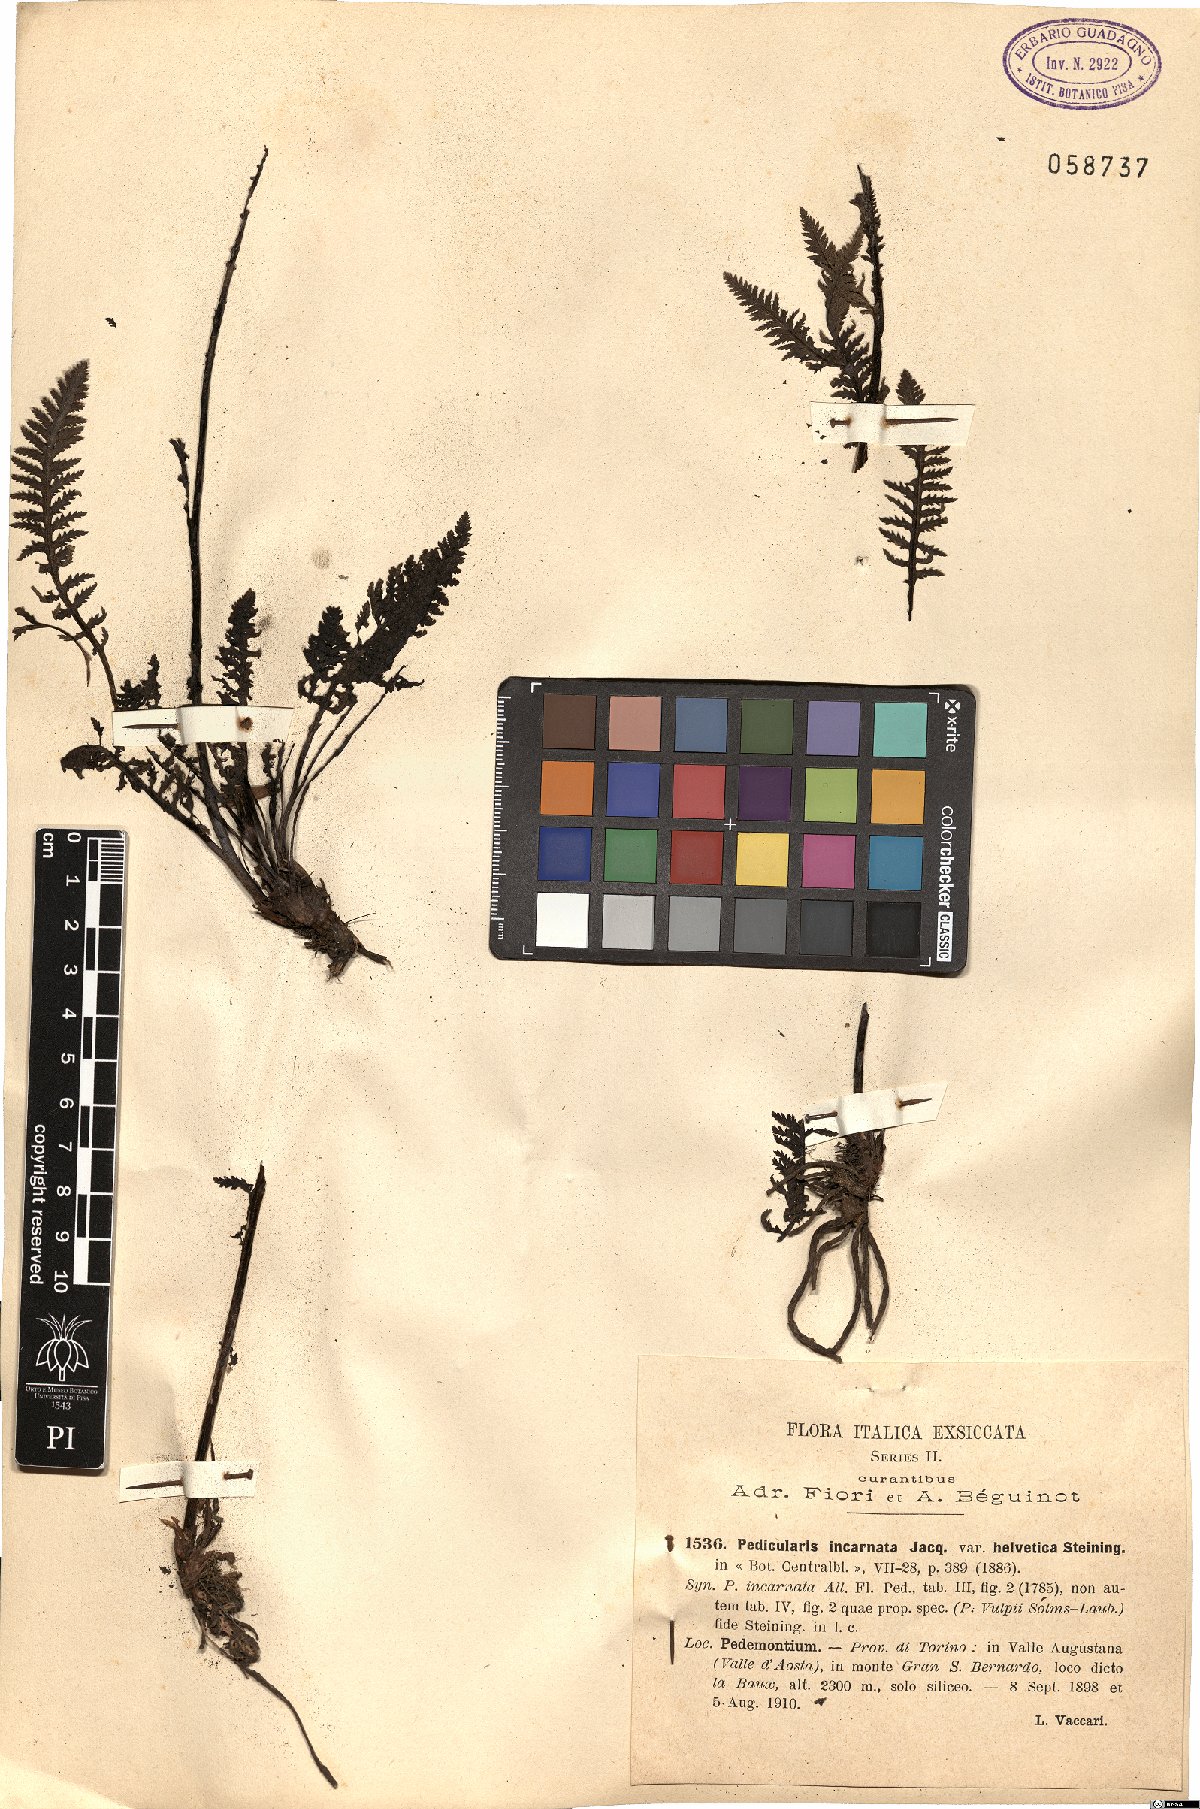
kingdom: Plantae
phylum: Tracheophyta
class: Magnoliopsida
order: Lamiales
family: Orobanchaceae
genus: Pedicularis
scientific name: Pedicularis rostratospicata
